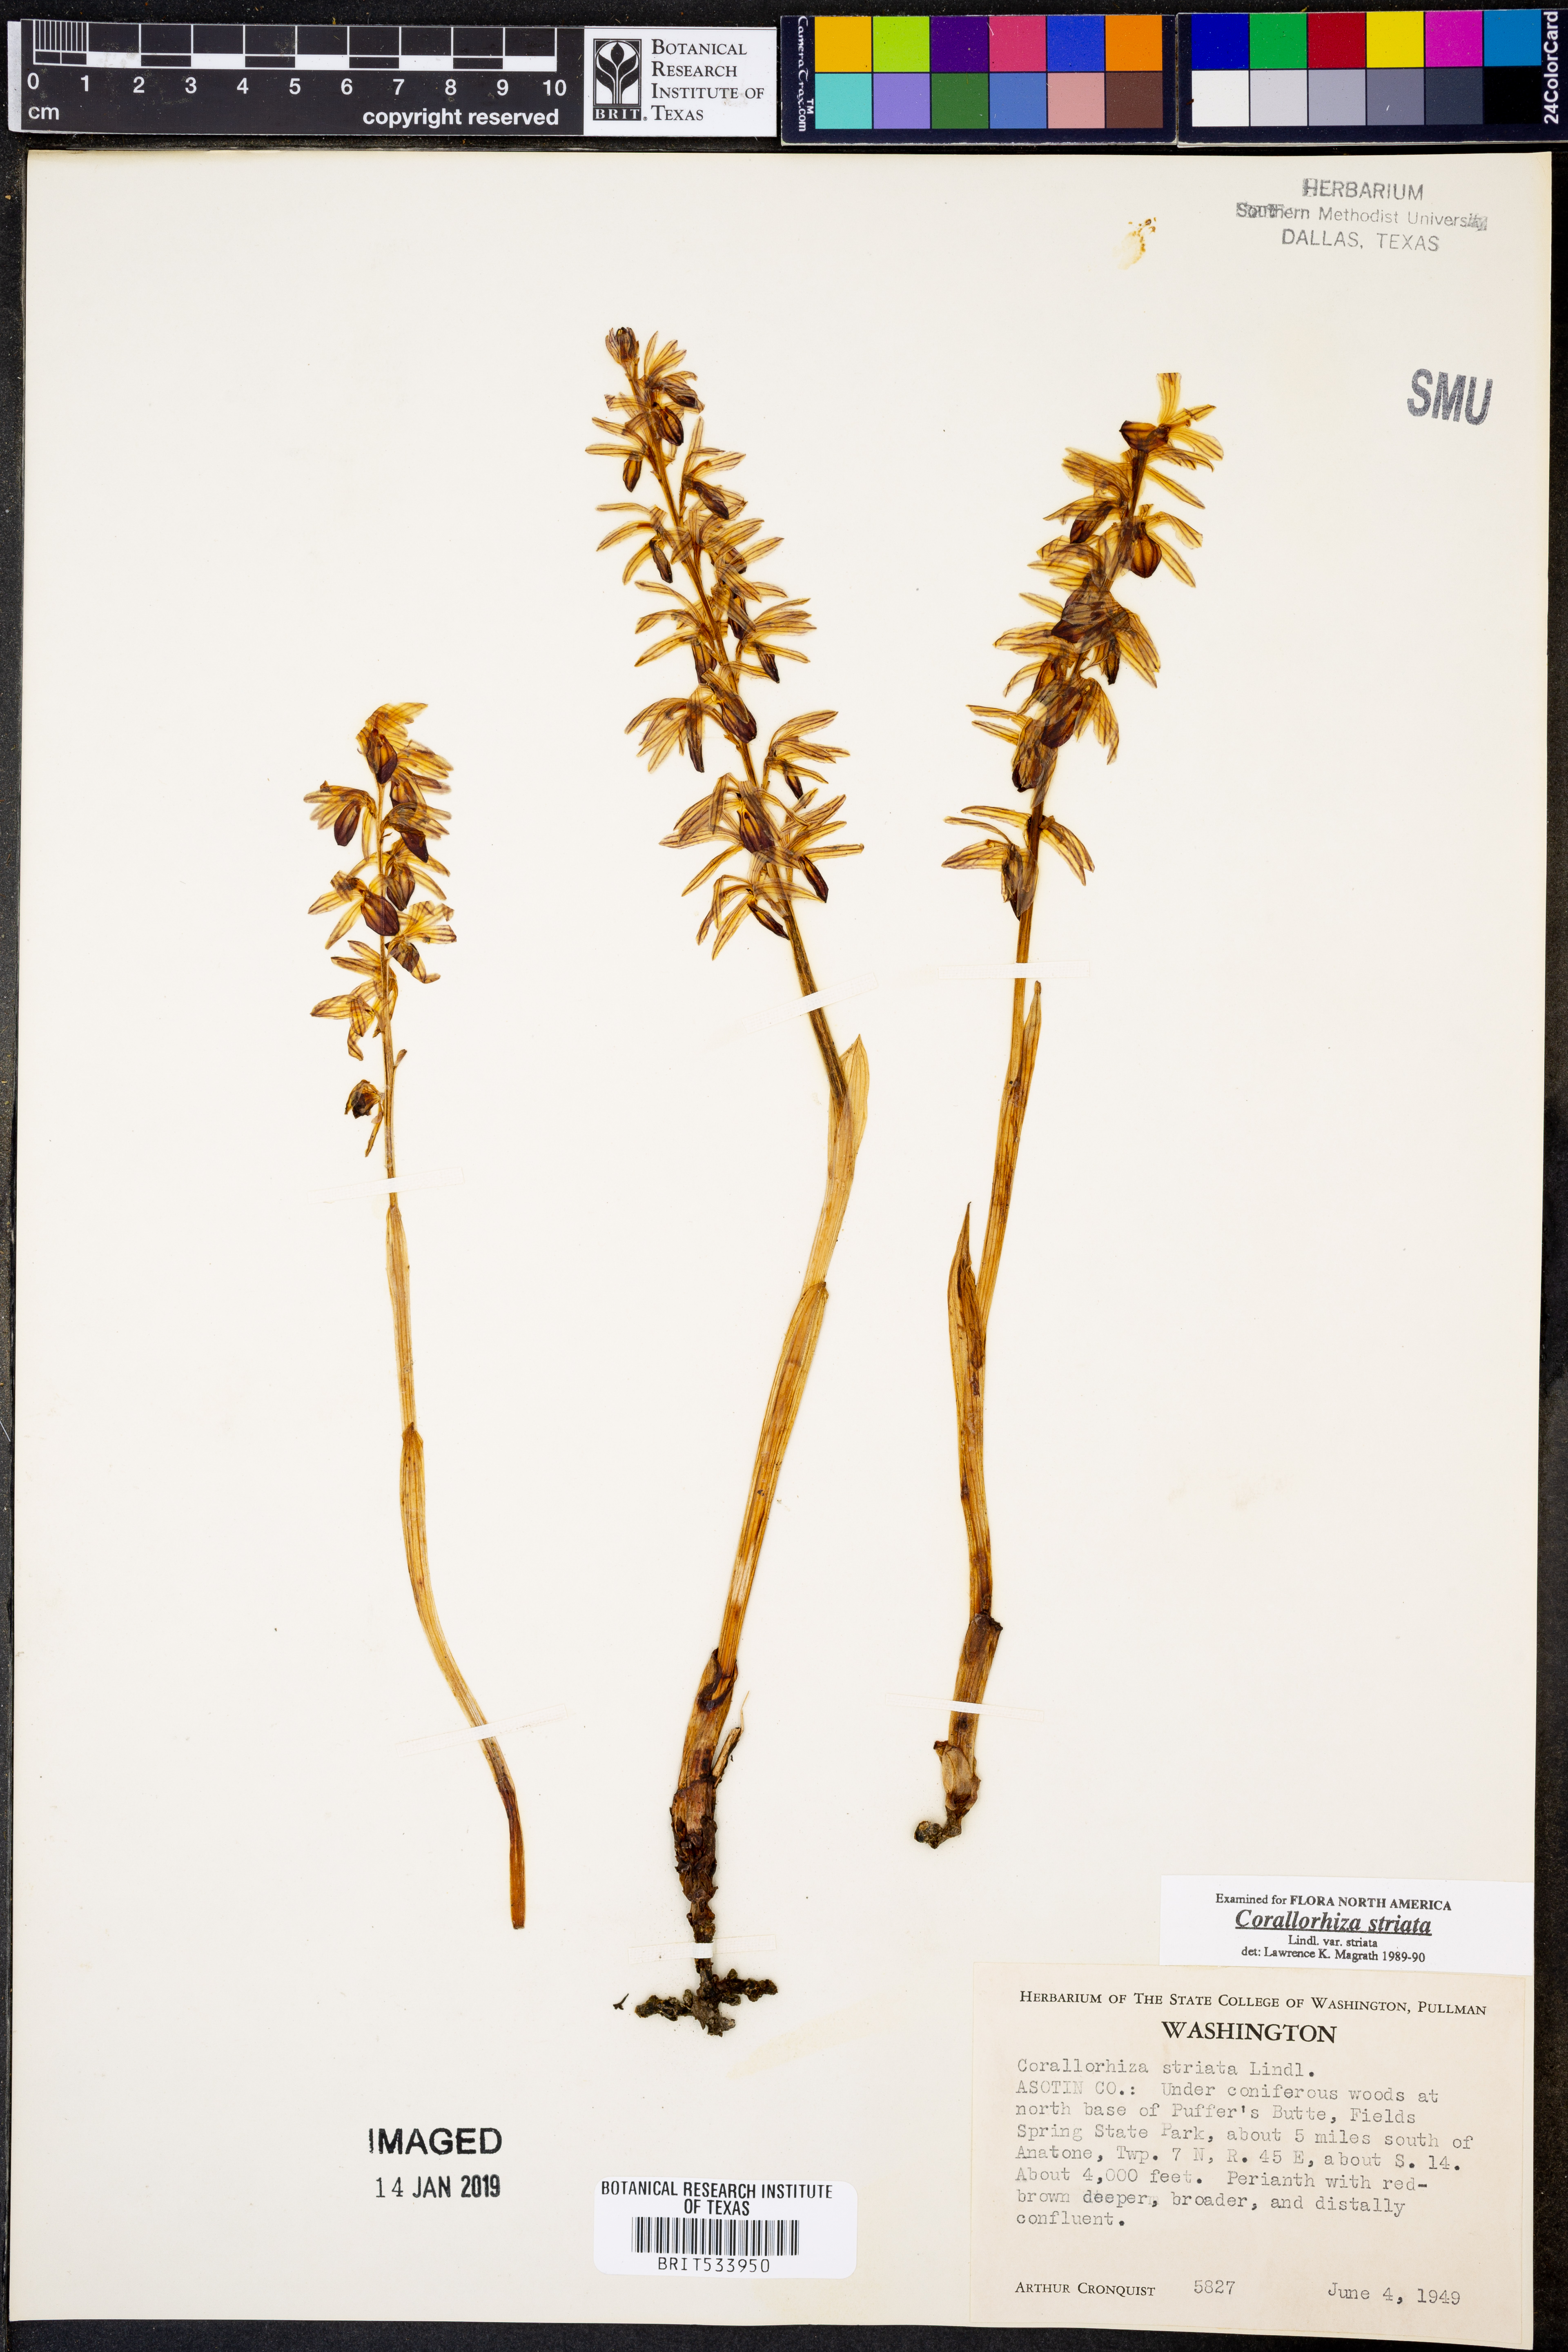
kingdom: Plantae
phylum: Tracheophyta
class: Liliopsida
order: Asparagales
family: Orchidaceae
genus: Corallorhiza
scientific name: Corallorhiza striata
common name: Hooded coralroot
